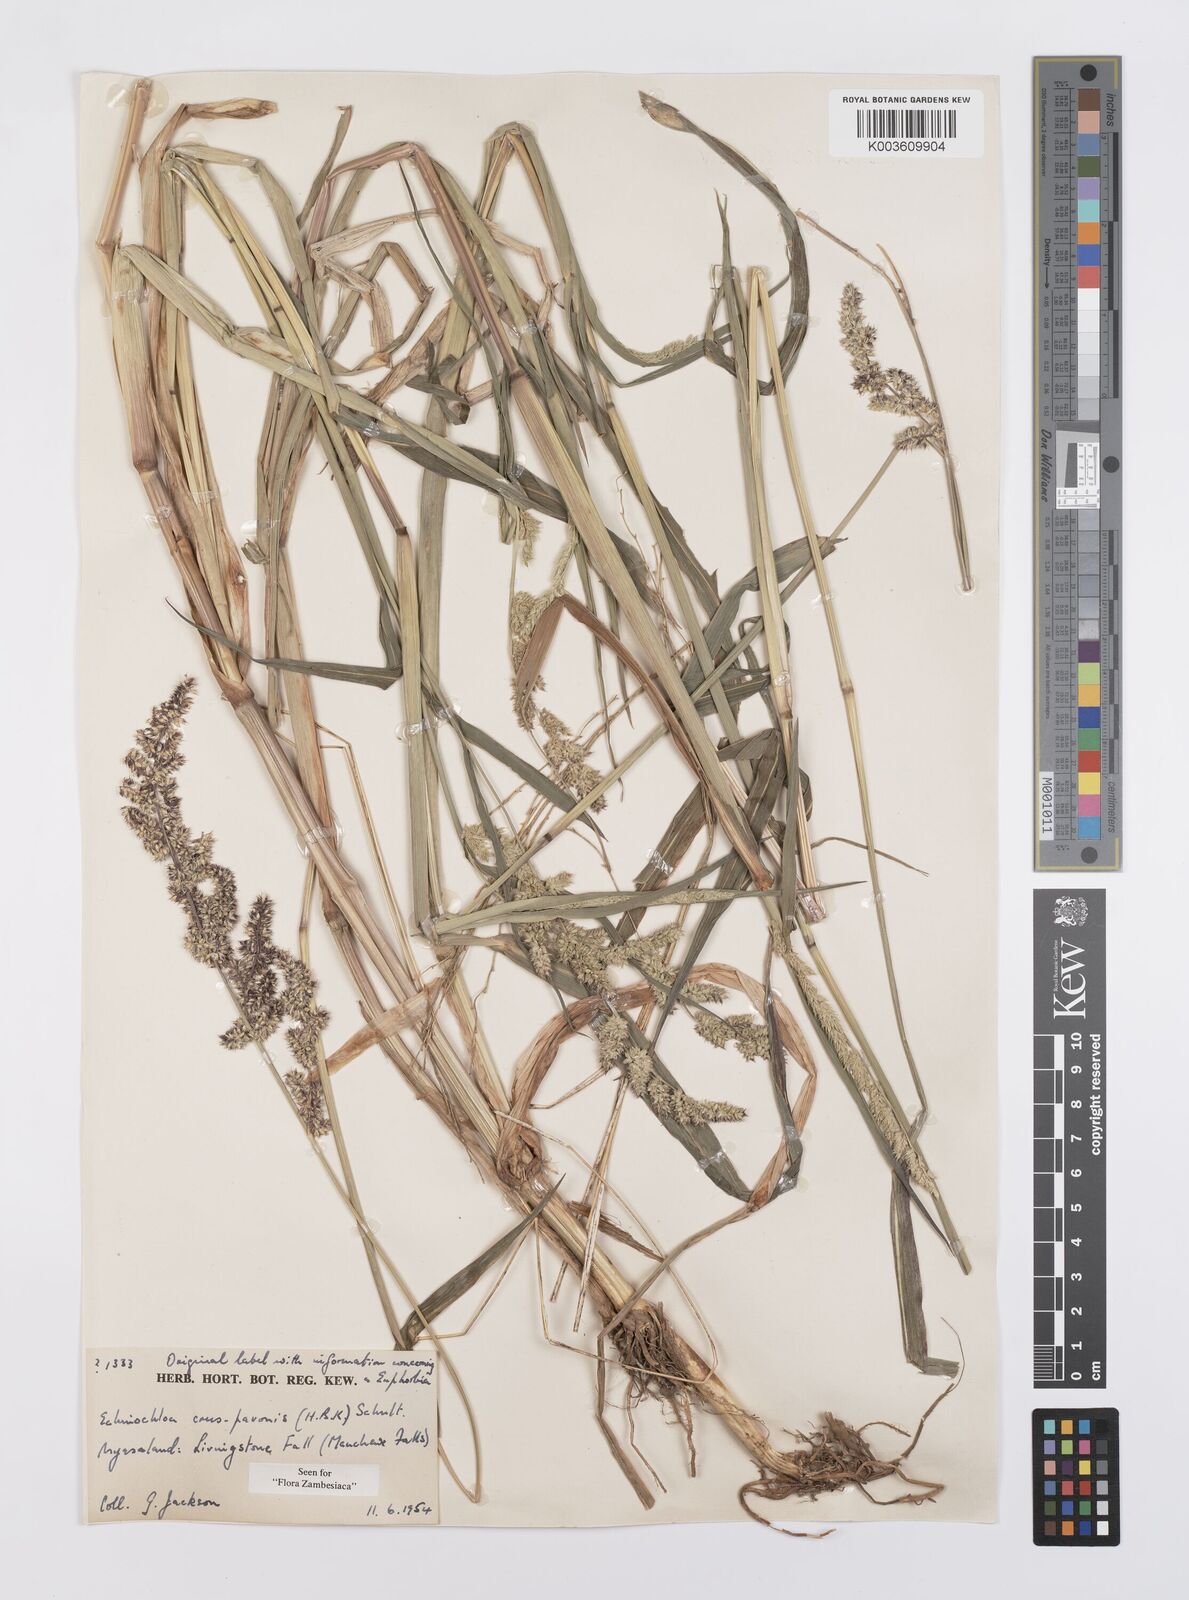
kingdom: Plantae
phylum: Tracheophyta
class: Liliopsida
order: Poales
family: Poaceae
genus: Echinochloa
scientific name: Echinochloa crus-pavonis
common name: Gulf cockspur grass
